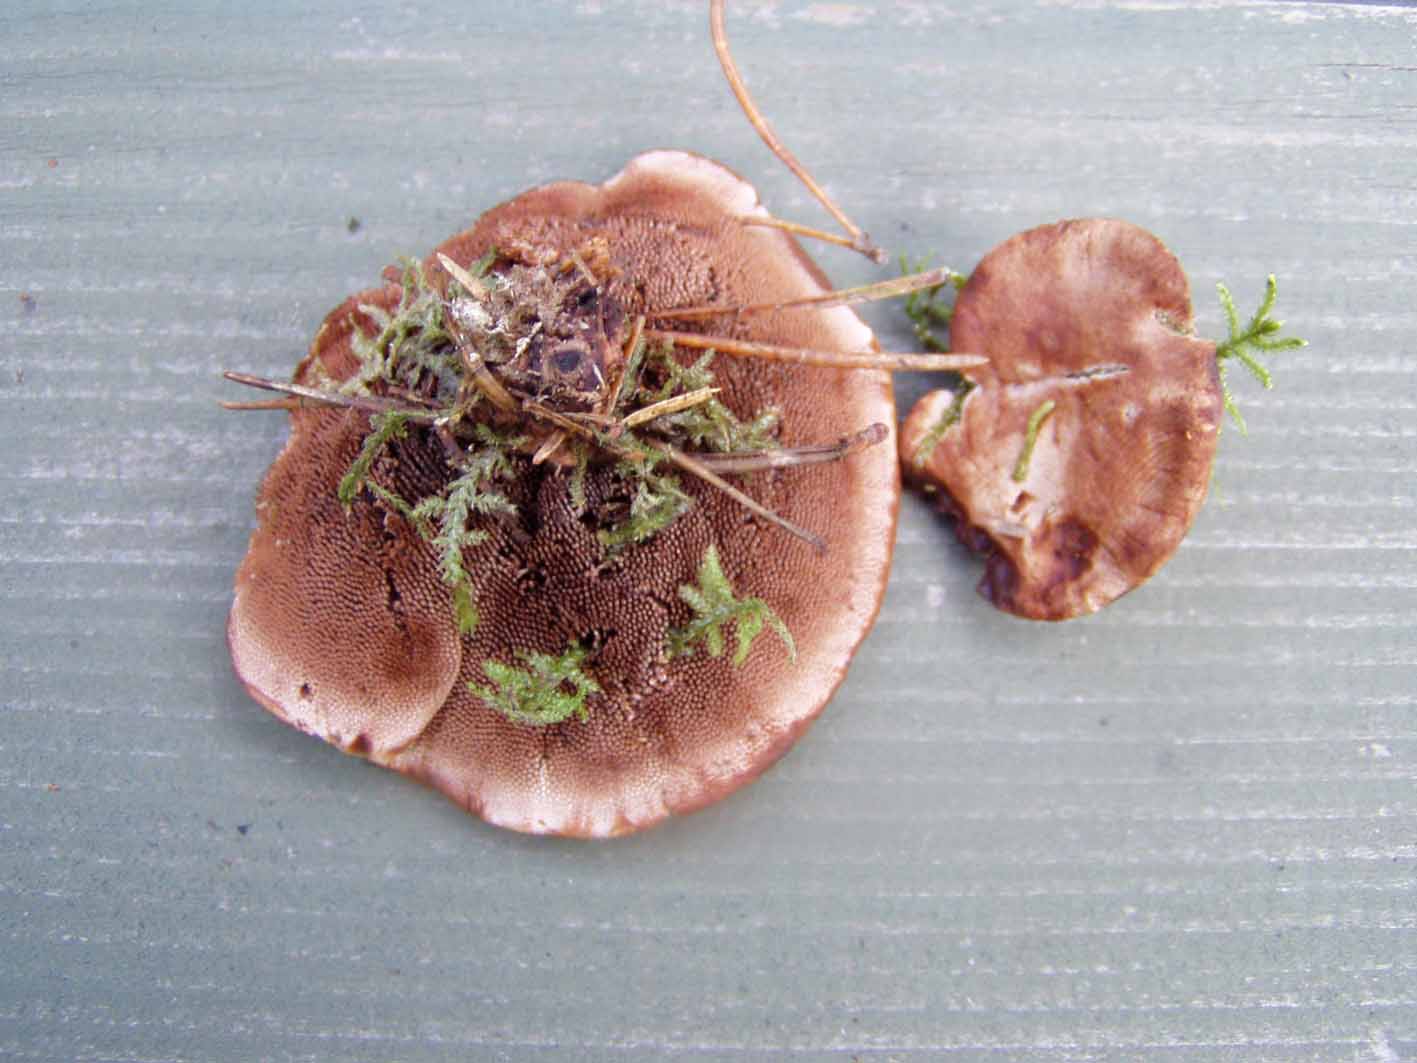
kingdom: Fungi
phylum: Basidiomycota
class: Agaricomycetes
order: Thelephorales
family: Bankeraceae
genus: Hydnellum
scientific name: Hydnellum ferrugineum
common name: rust-korkpigsvamp
